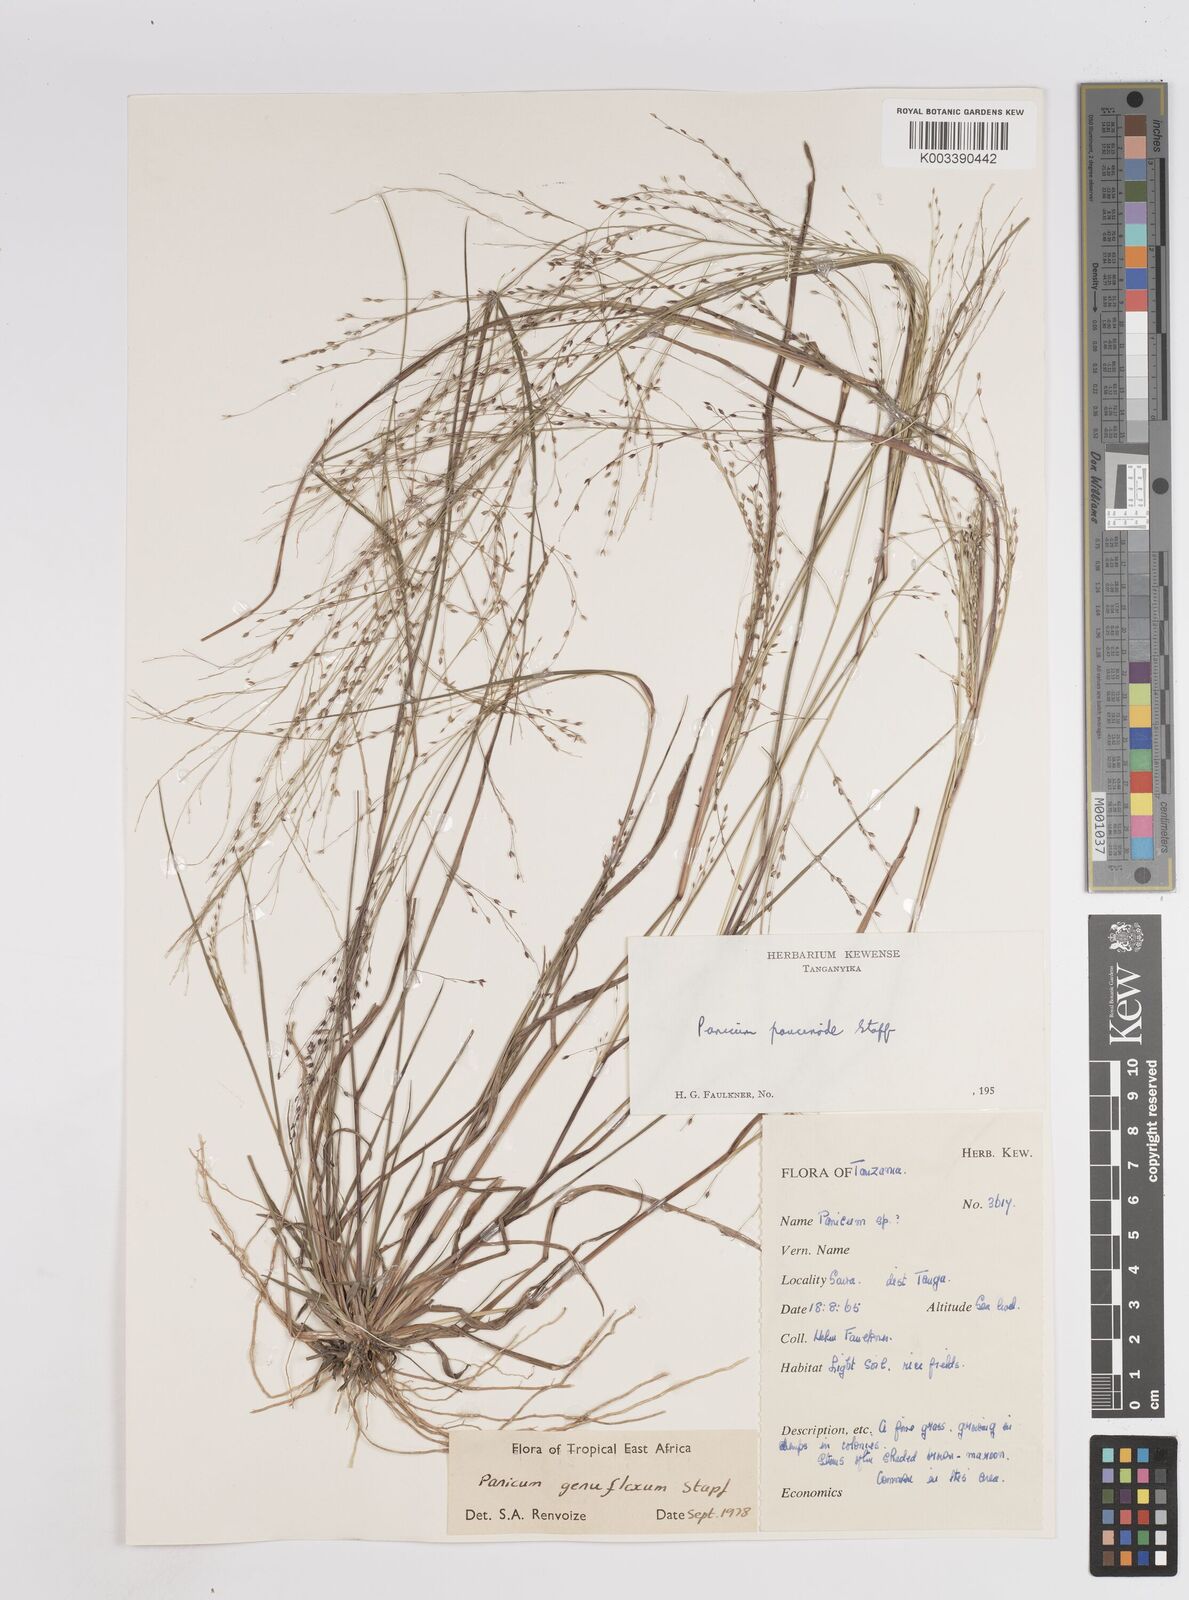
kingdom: Plantae
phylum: Tracheophyta
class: Liliopsida
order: Poales
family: Poaceae
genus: Panicum
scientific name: Panicum genuflexum
